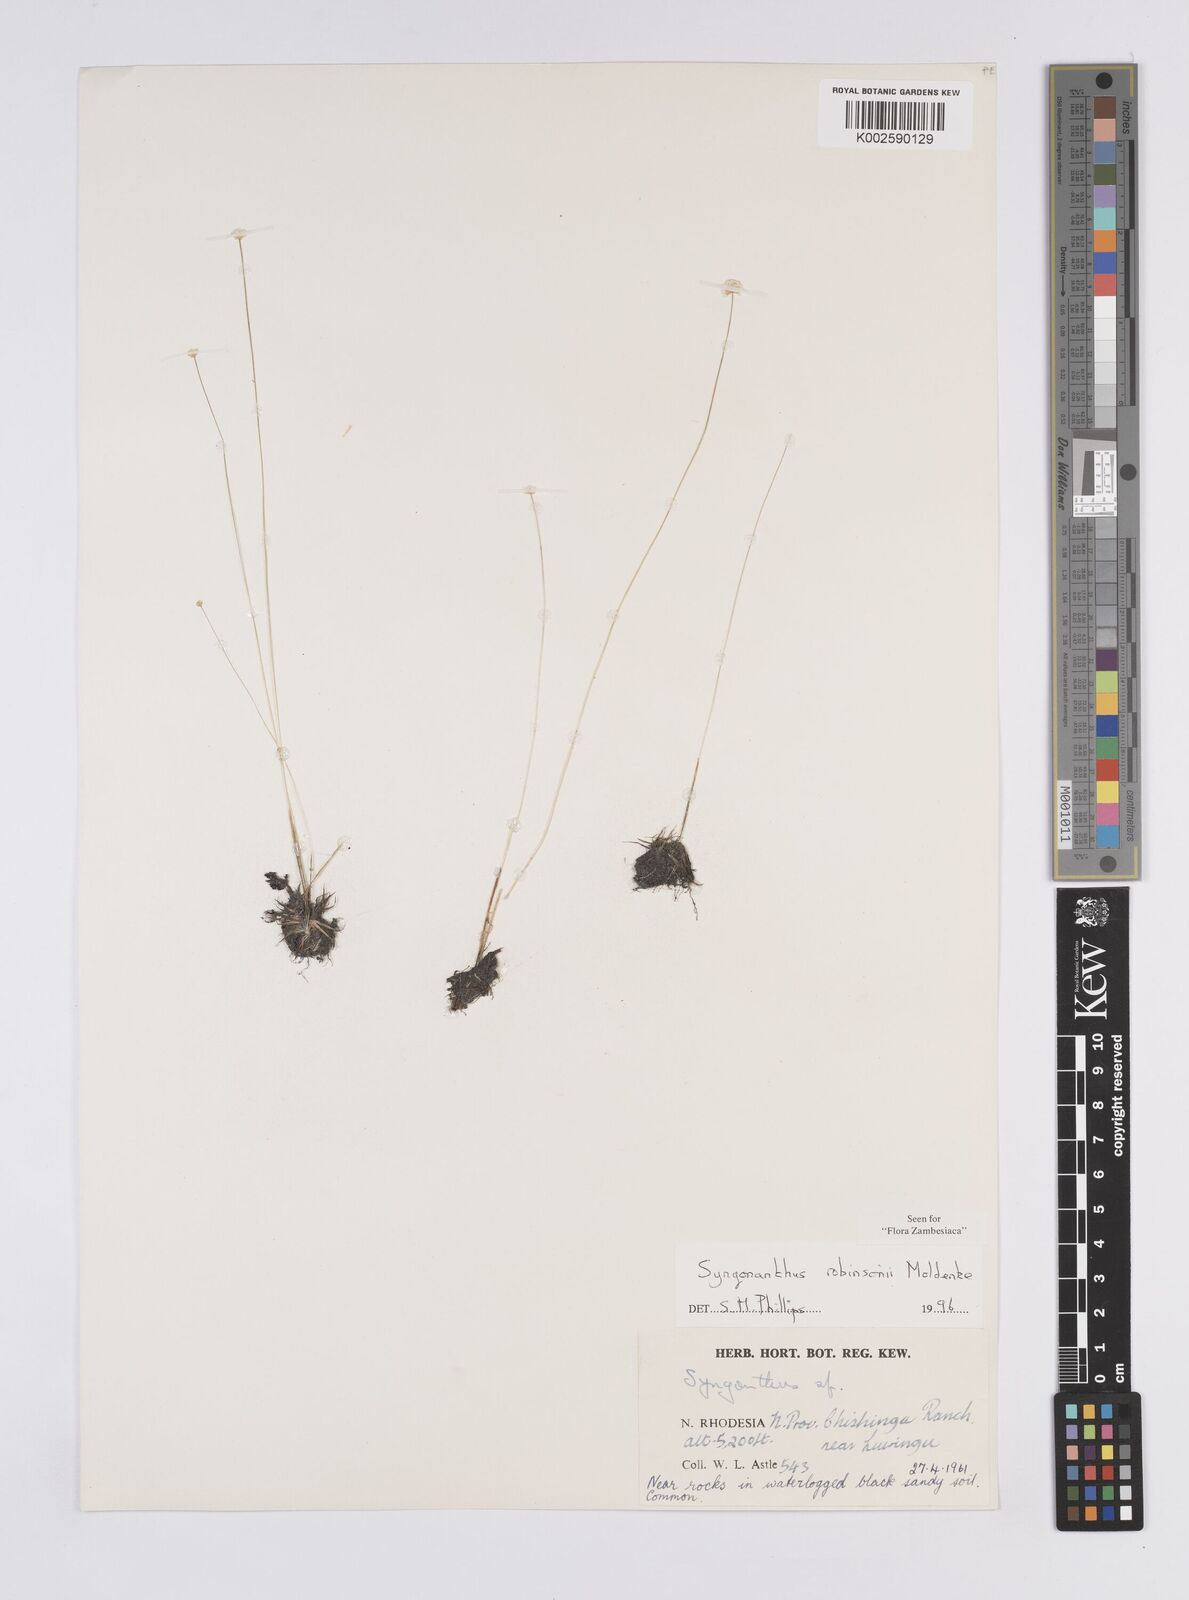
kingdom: Plantae
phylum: Tracheophyta
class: Liliopsida
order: Poales
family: Eriocaulaceae
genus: Syngonanthus
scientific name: Syngonanthus robinsonii
